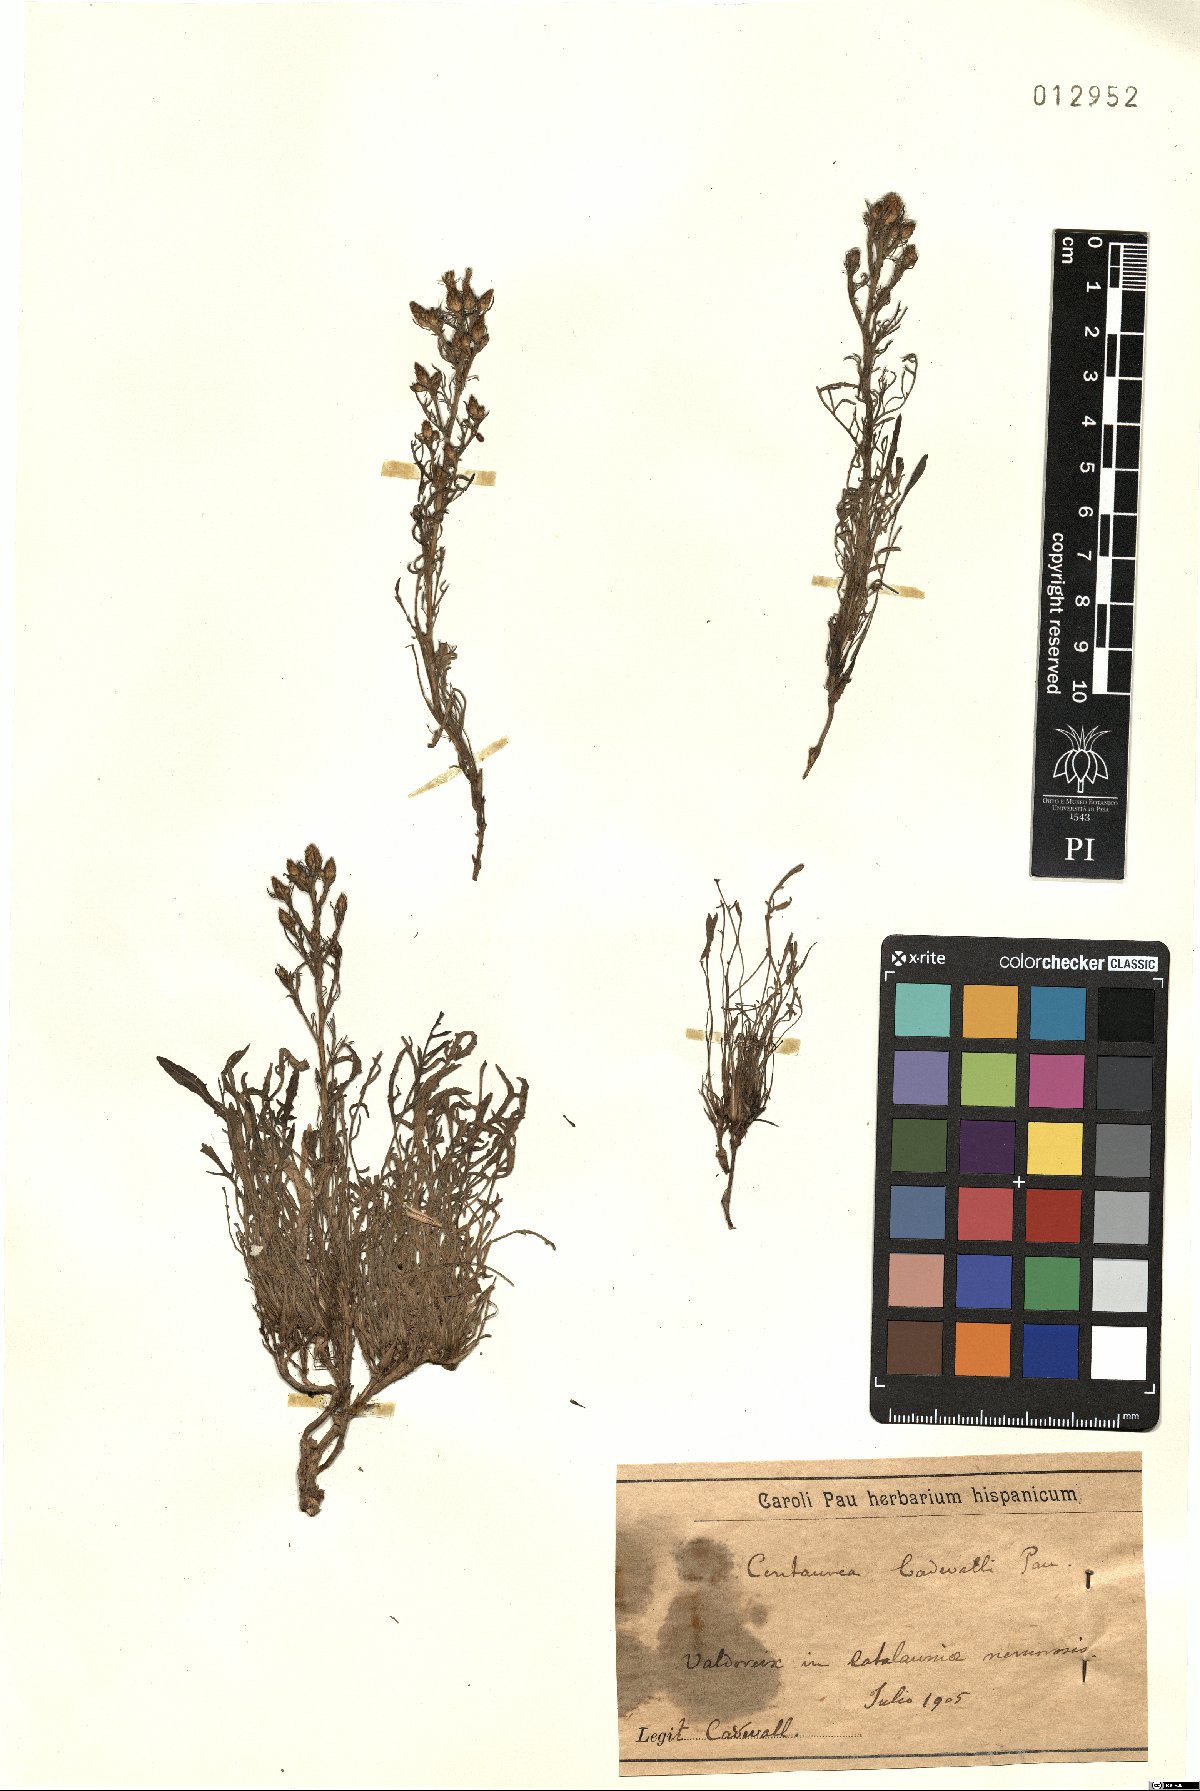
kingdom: Plantae
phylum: Tracheophyta
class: Magnoliopsida
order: Asterales
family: Asteraceae
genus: Centaurea
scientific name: Centaurea cadevallii
